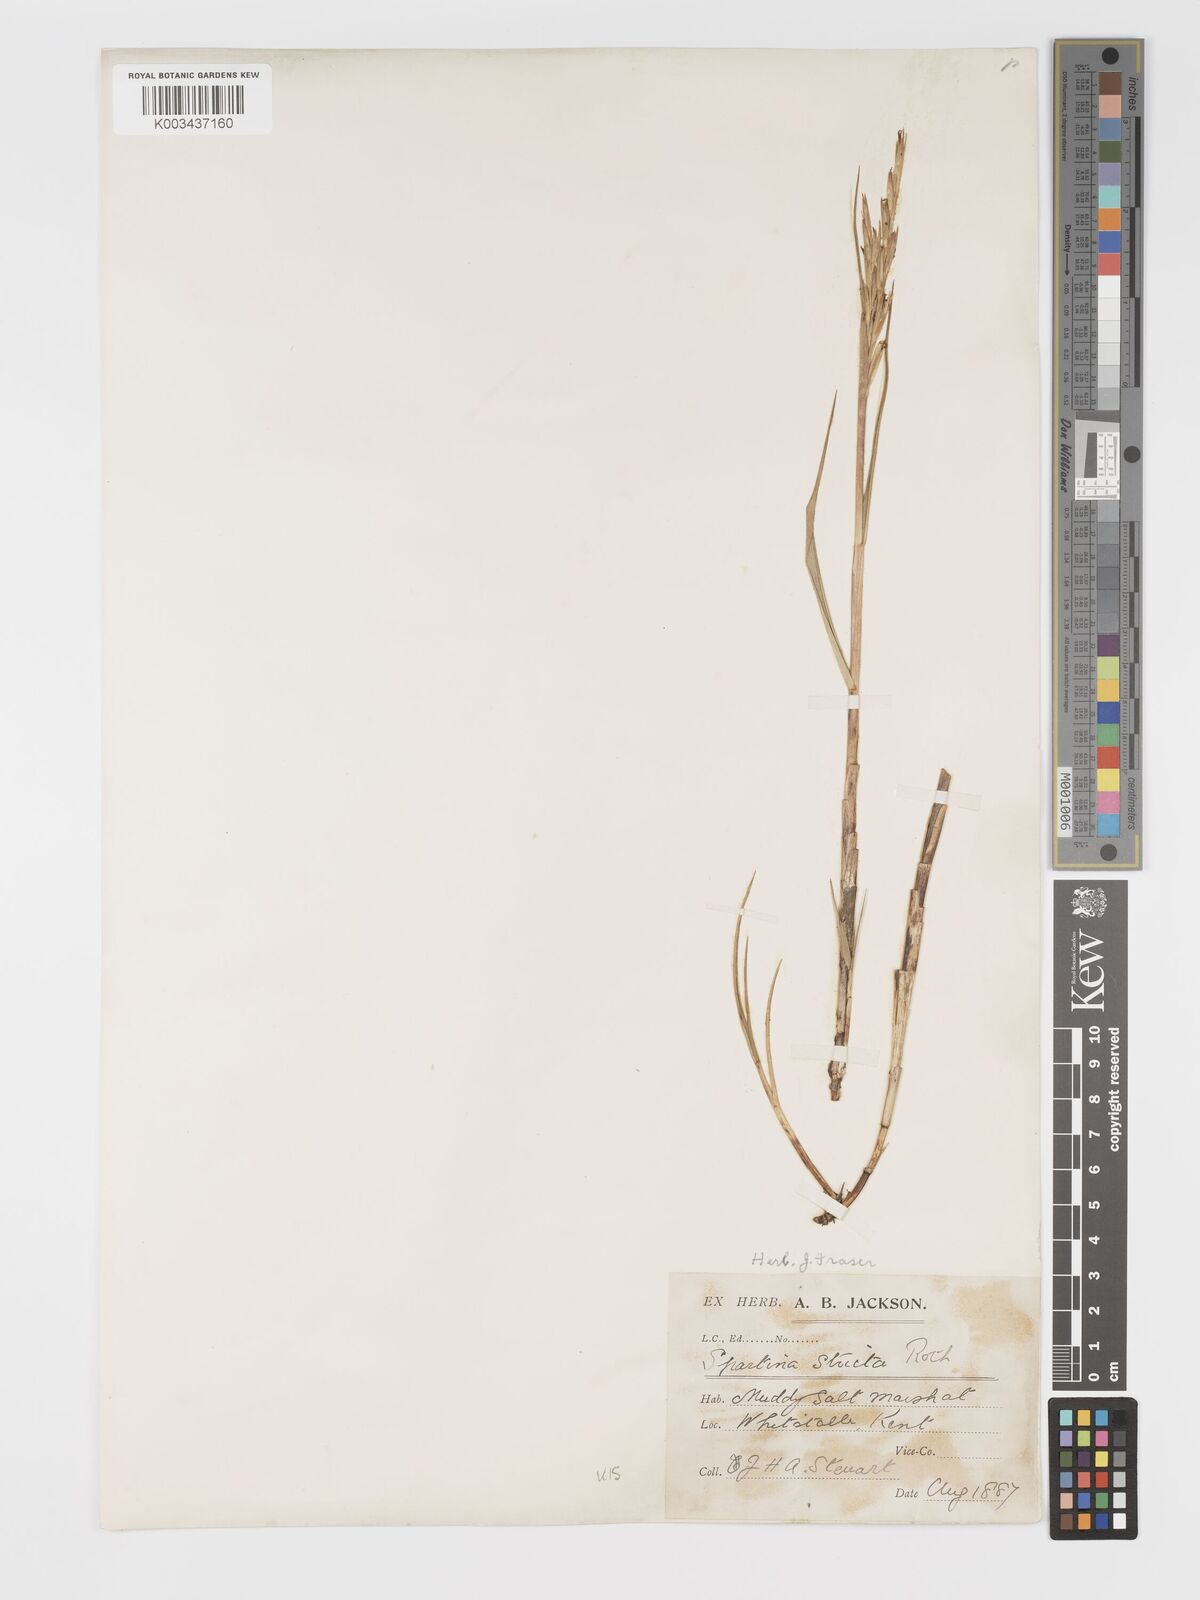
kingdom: Plantae
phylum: Tracheophyta
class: Liliopsida
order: Poales
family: Poaceae
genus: Sporobolus
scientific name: Sporobolus maritimus
